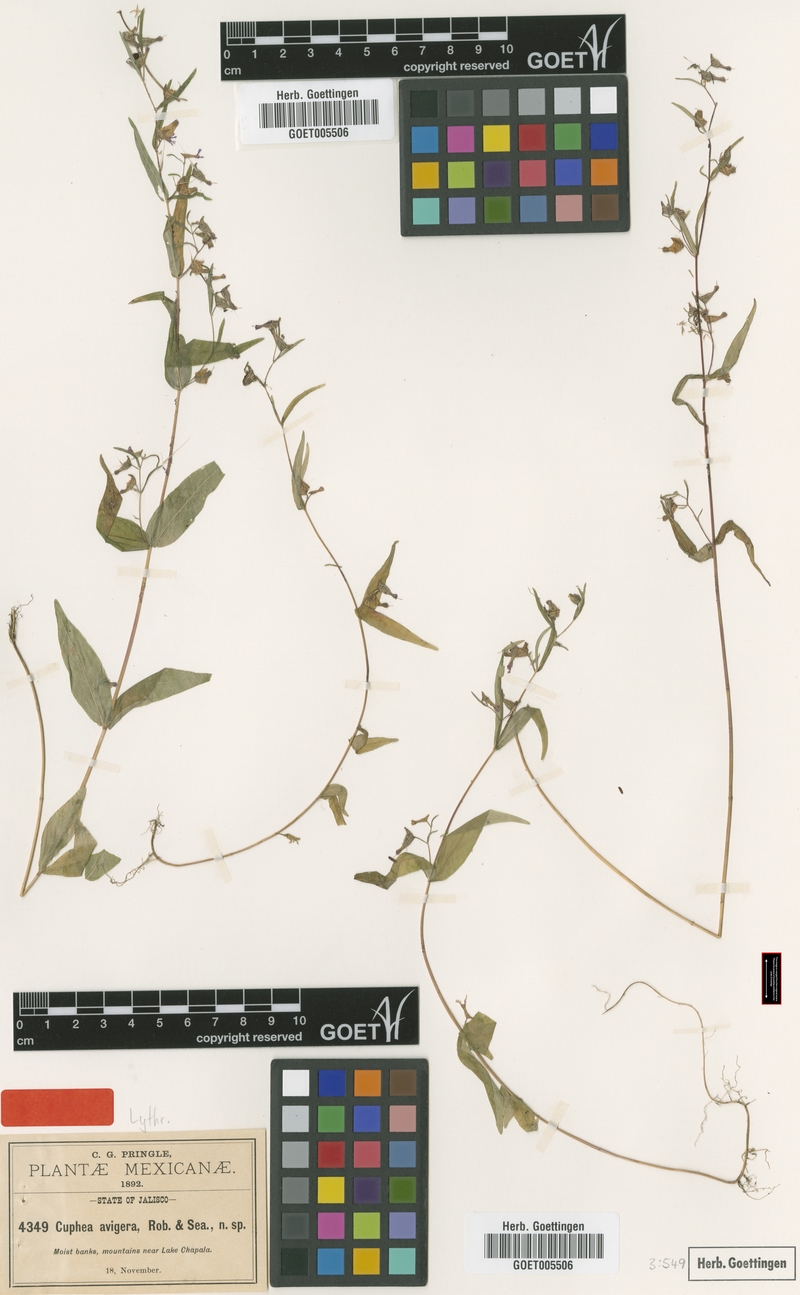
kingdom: Plantae
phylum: Tracheophyta
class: Magnoliopsida
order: Myrtales
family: Lythraceae
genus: Cuphea
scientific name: Cuphea avigera
